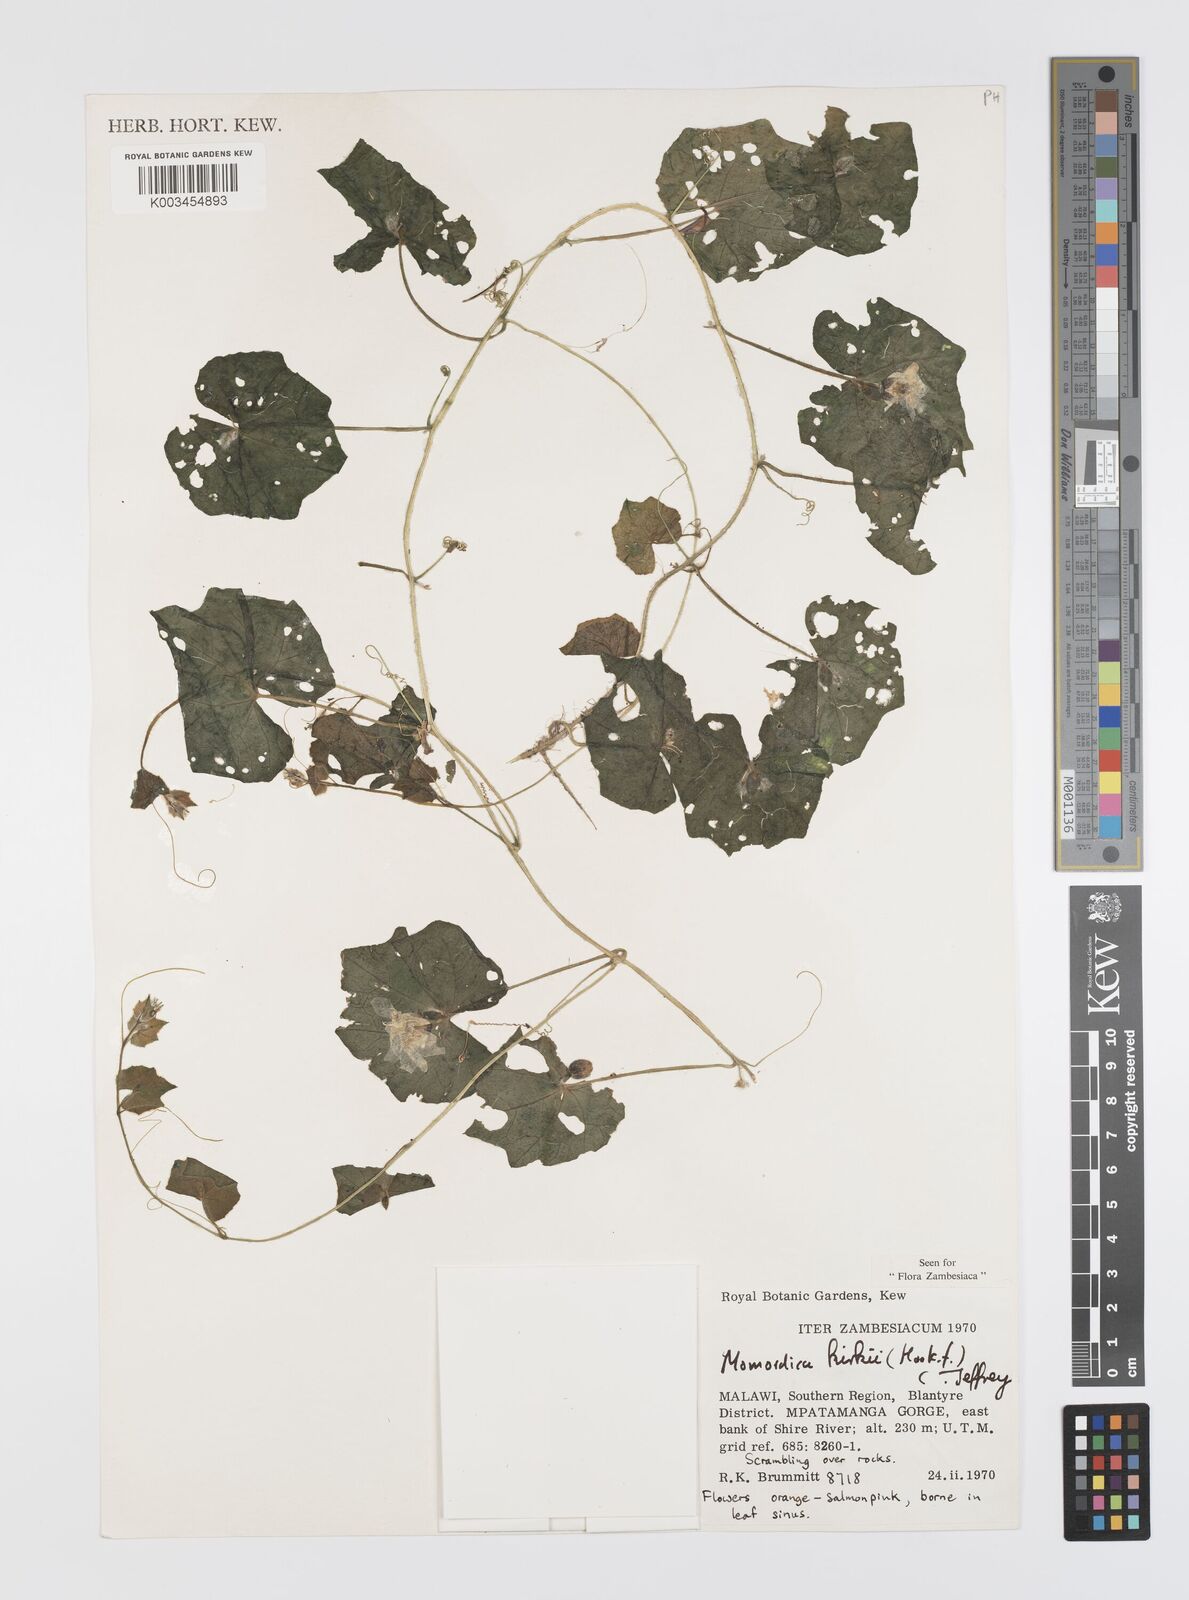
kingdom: Plantae
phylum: Tracheophyta
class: Magnoliopsida
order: Cucurbitales
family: Cucurbitaceae
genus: Momordica
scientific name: Momordica kirkii
